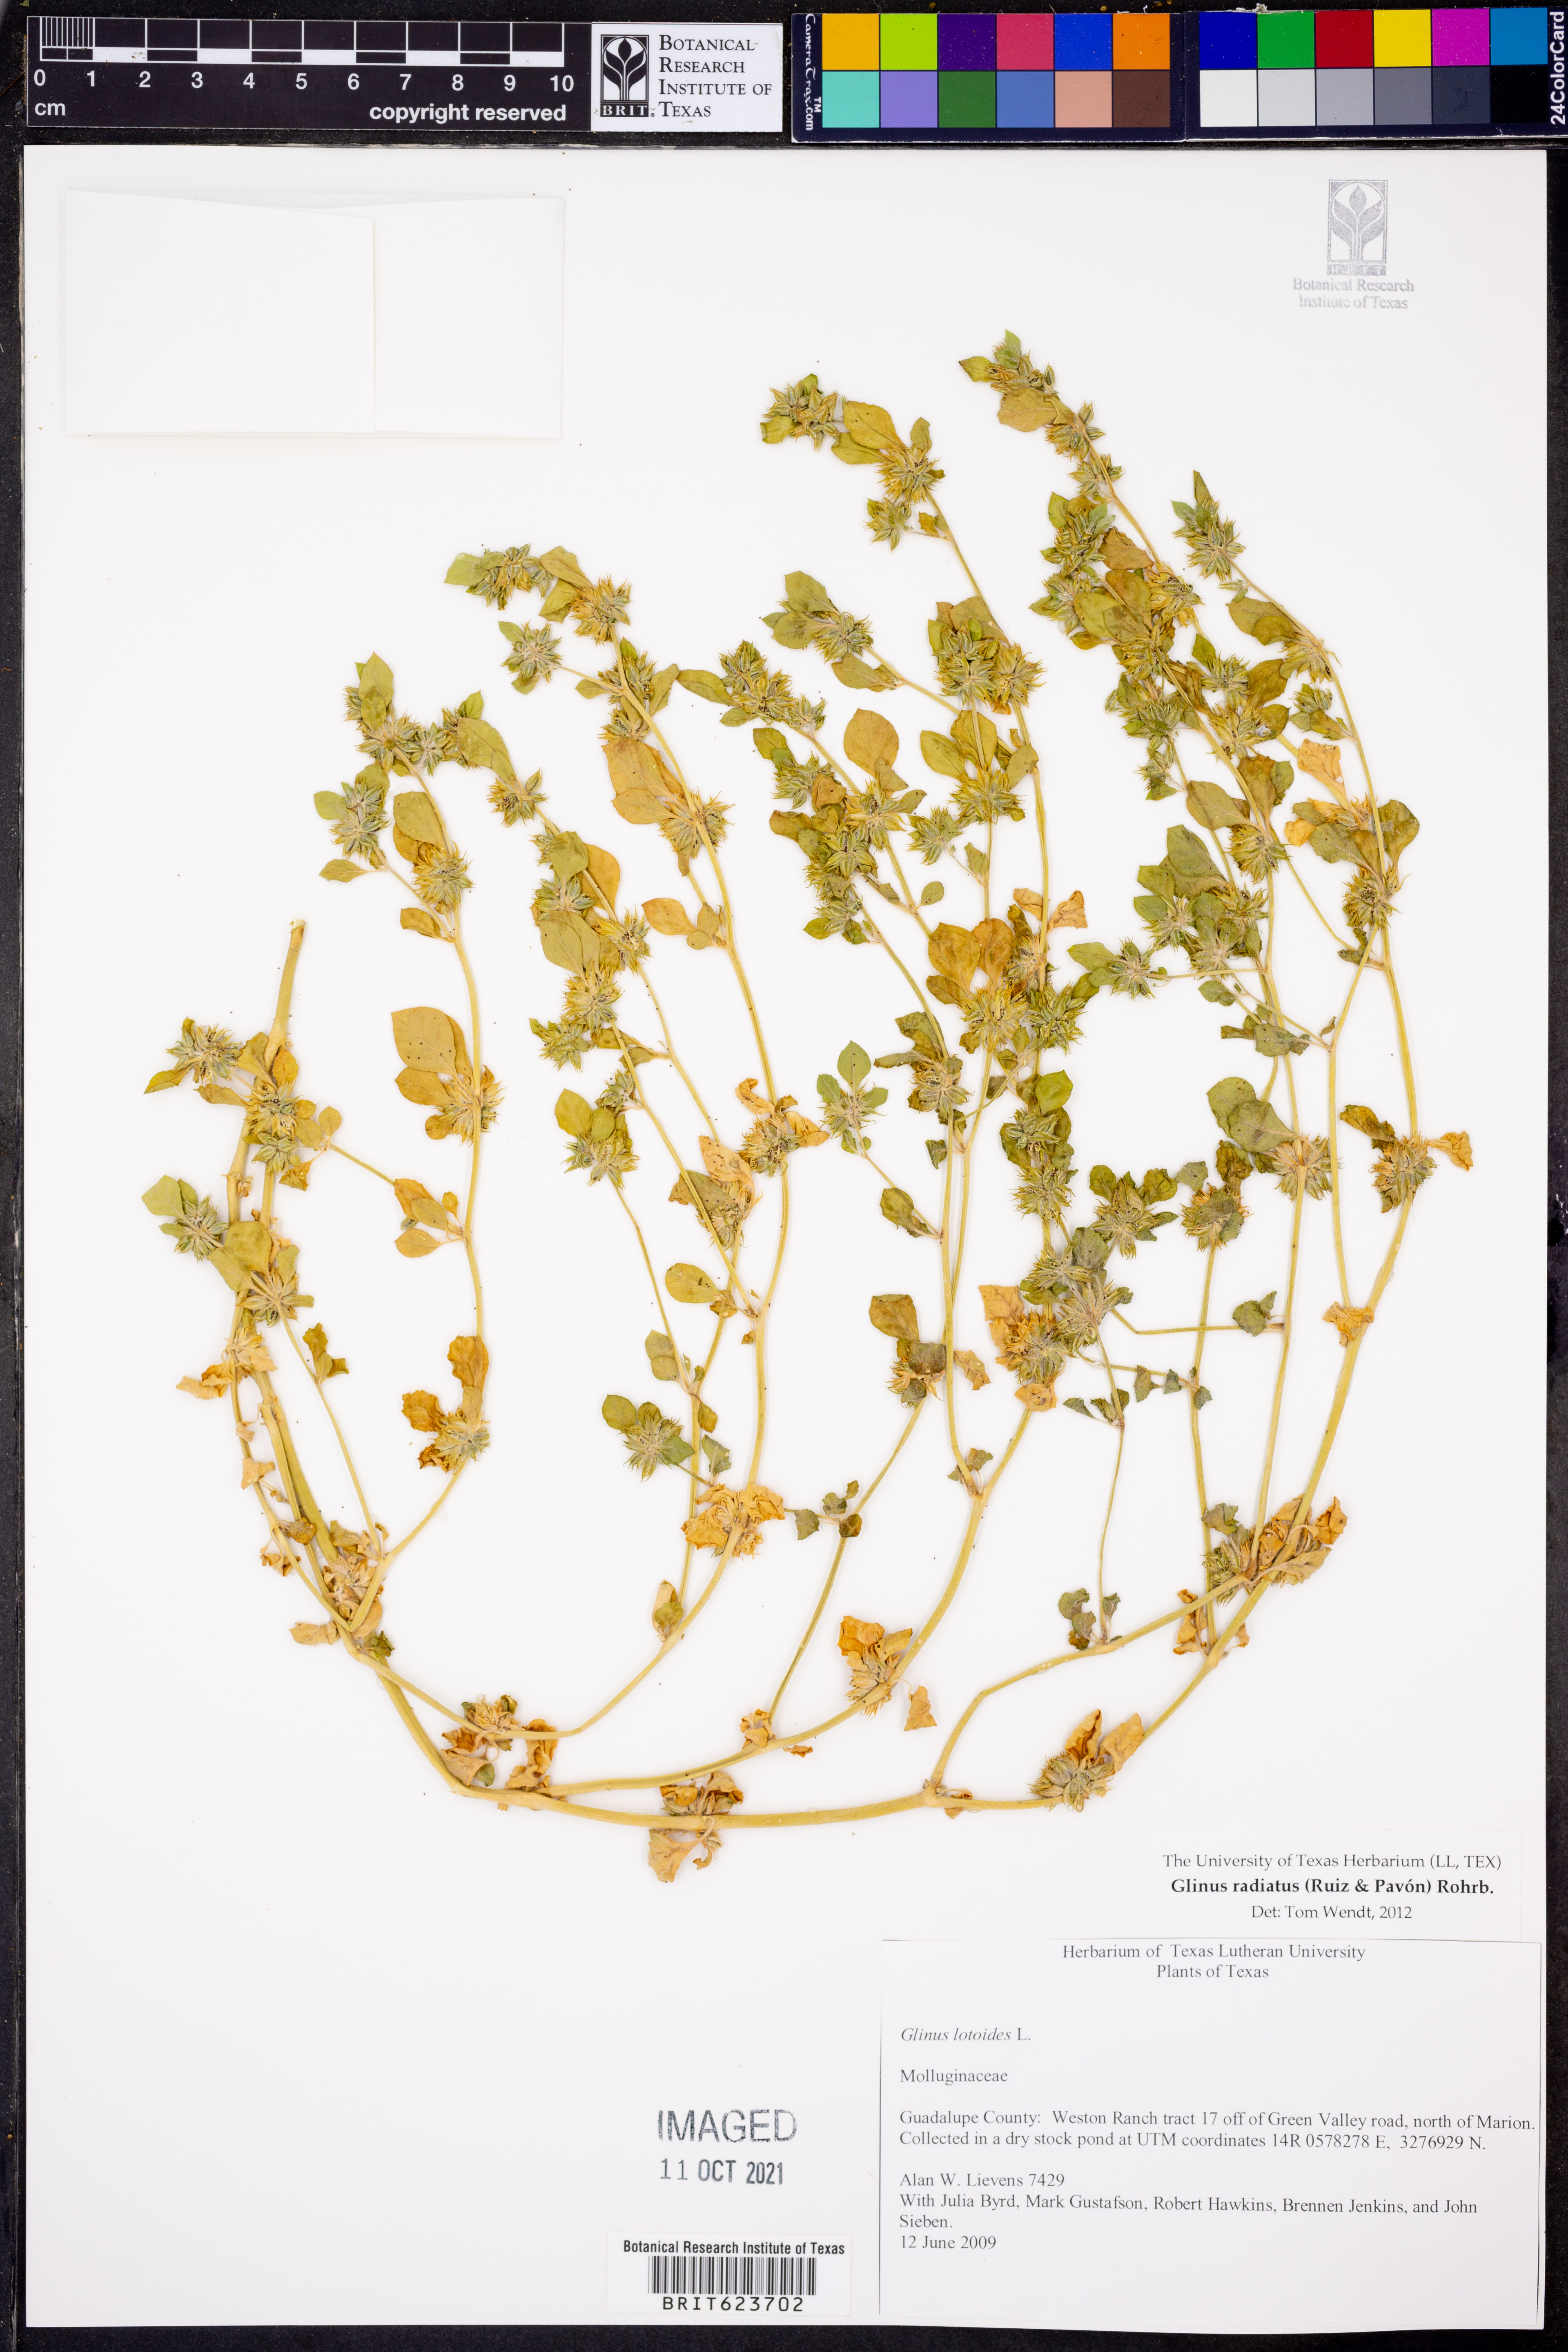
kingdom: Plantae
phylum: Tracheophyta
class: Magnoliopsida
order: Caryophyllales
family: Molluginaceae
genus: Glinus
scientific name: Glinus lotoides
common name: Lotus sweetjuice
